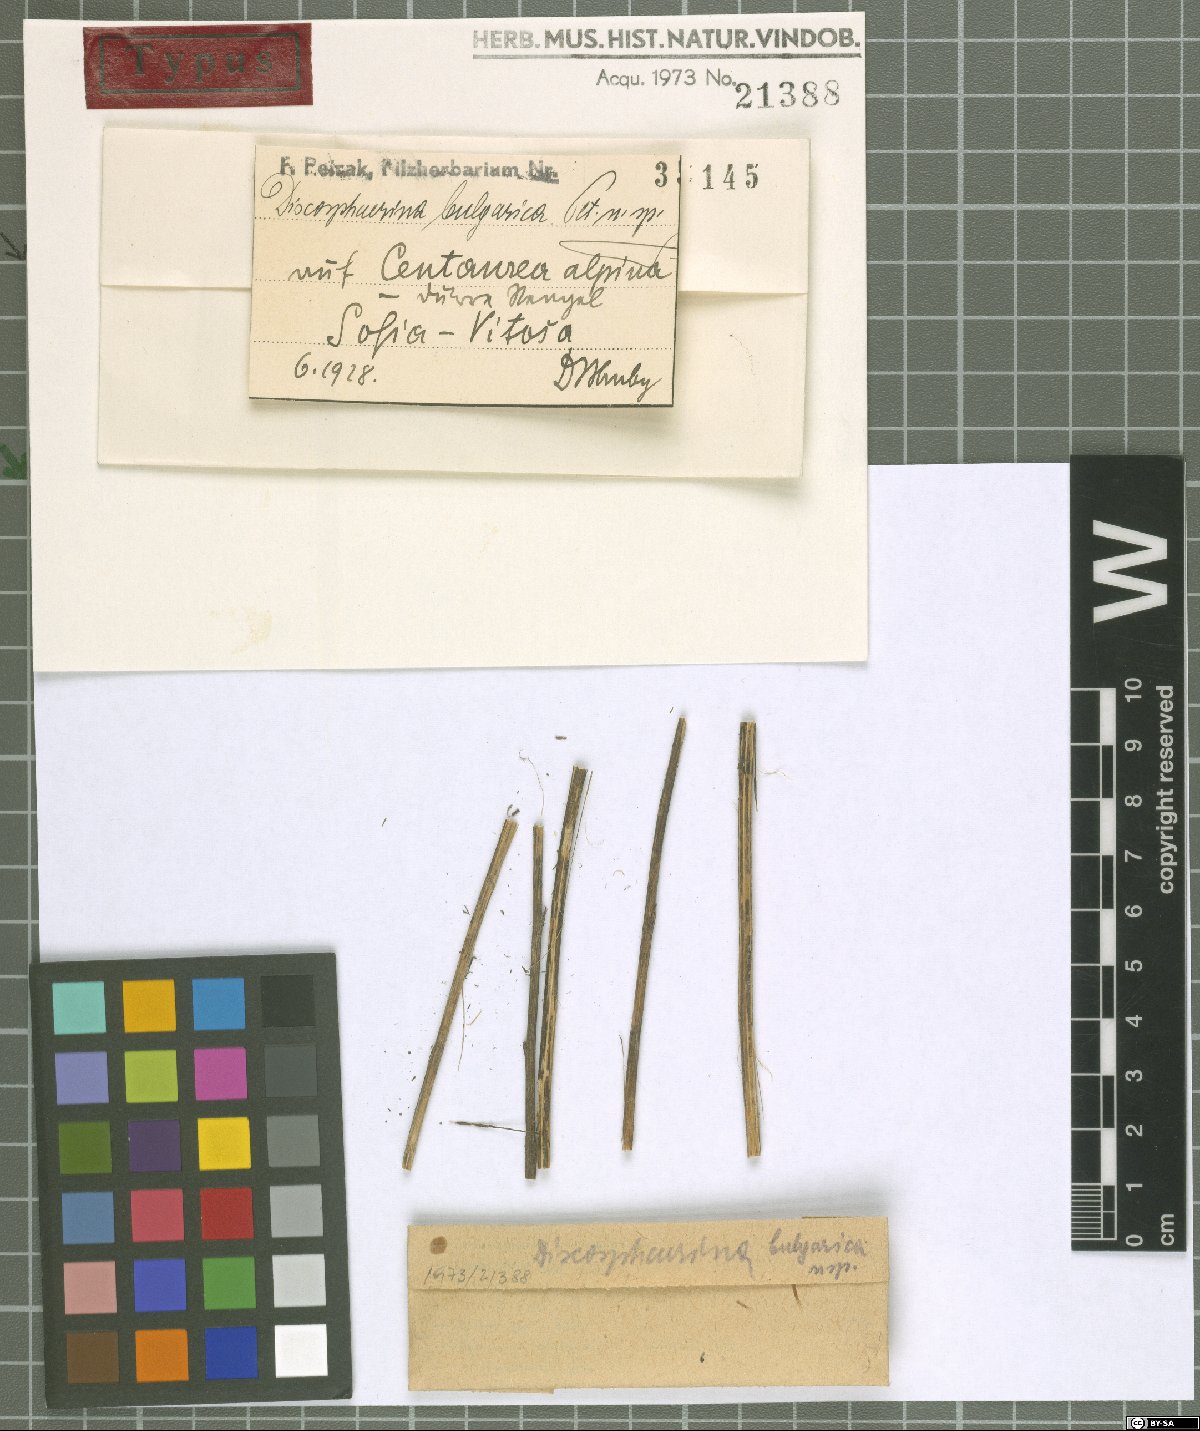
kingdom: Fungi
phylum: Ascomycota
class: Dothideomycetes
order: Botryosphaeriales
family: Phyllostictaceae
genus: Guignardia
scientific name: Guignardia bulgarica
